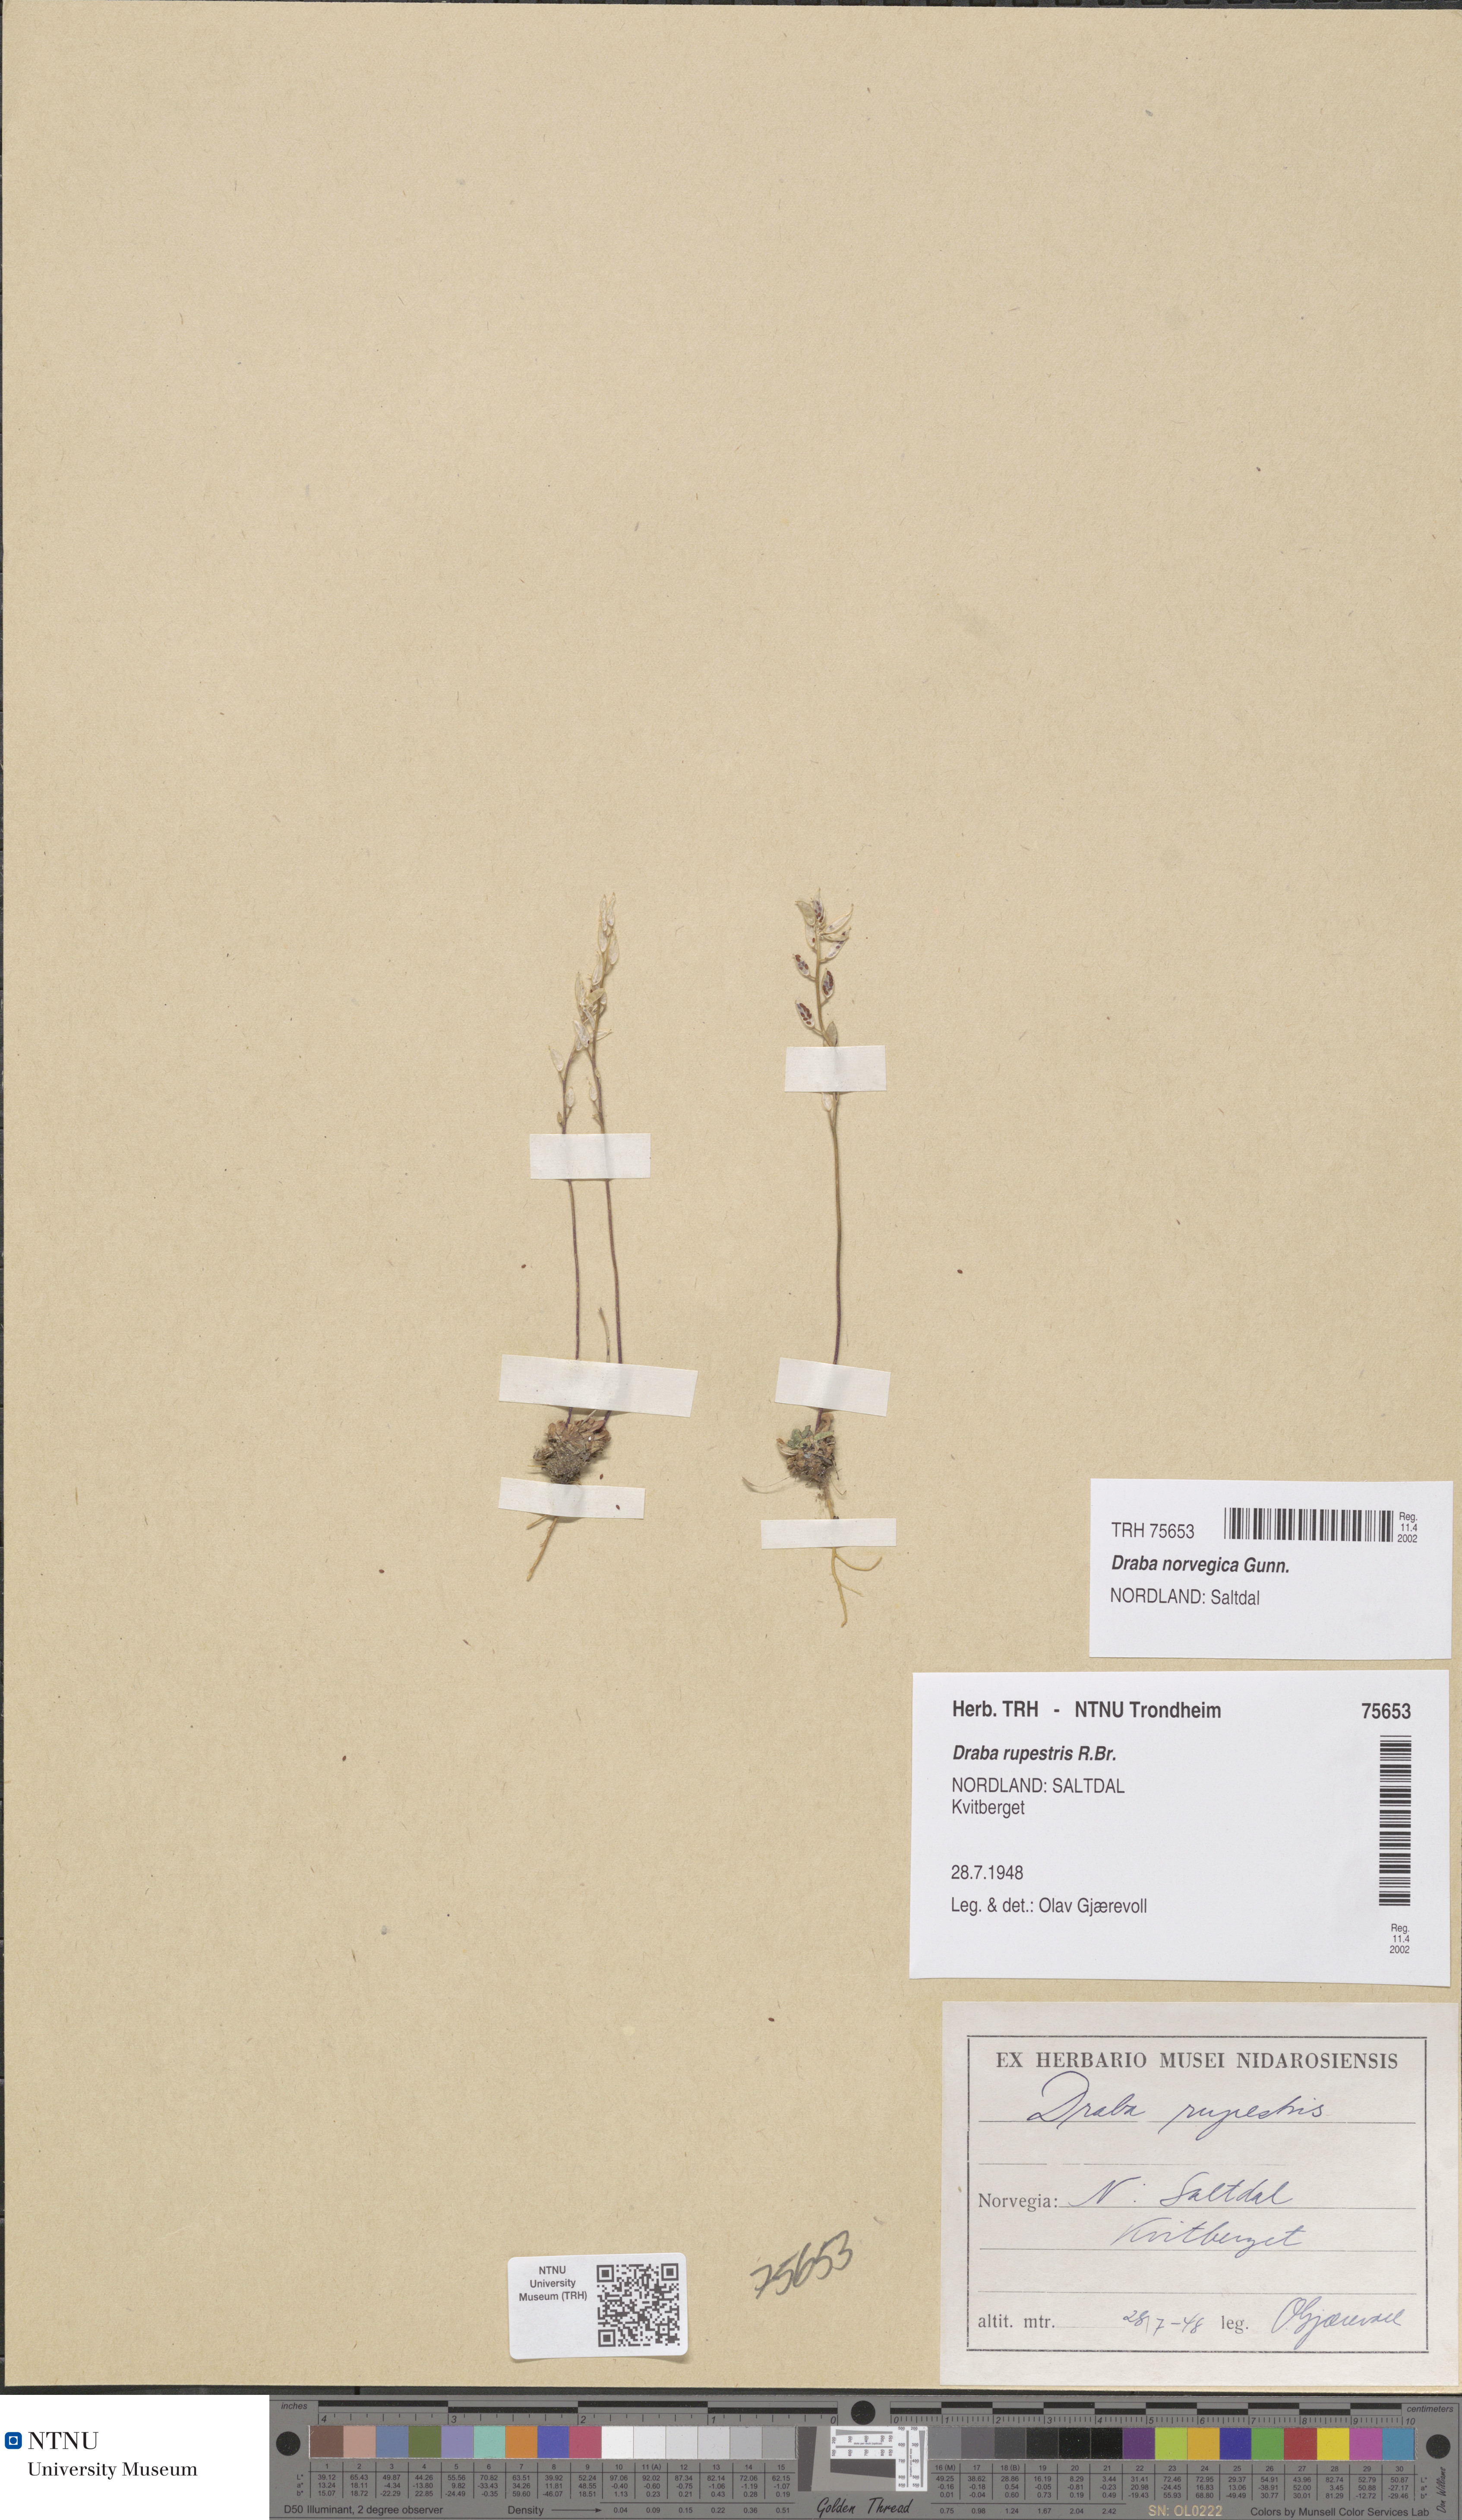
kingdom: Plantae
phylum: Tracheophyta
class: Magnoliopsida
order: Brassicales
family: Brassicaceae
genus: Draba
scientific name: Draba norvegica
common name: Rock whitlowgrass
